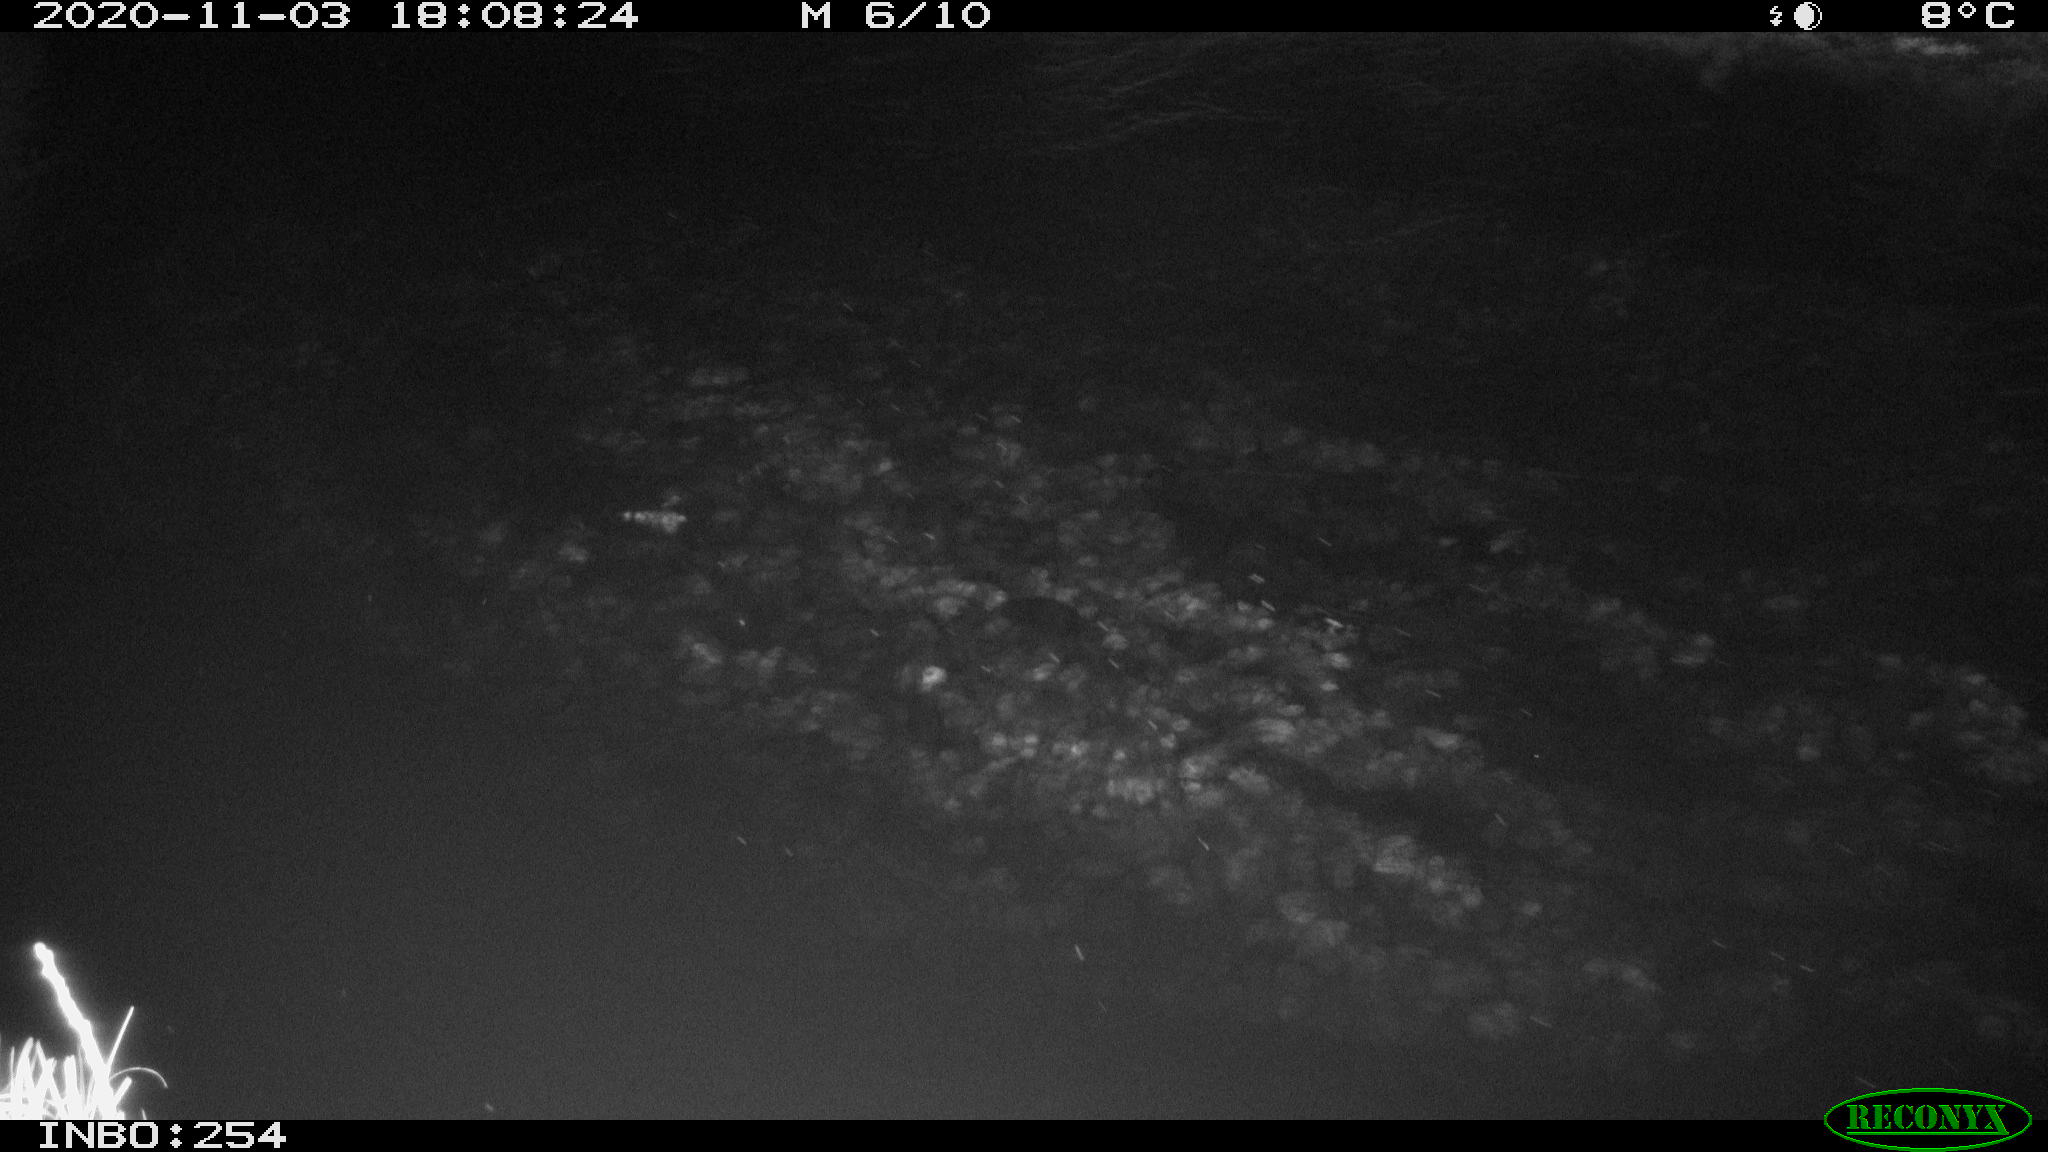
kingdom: Animalia
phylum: Chordata
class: Aves
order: Anseriformes
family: Anatidae
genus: Anas
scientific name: Anas platyrhynchos
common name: Mallard
